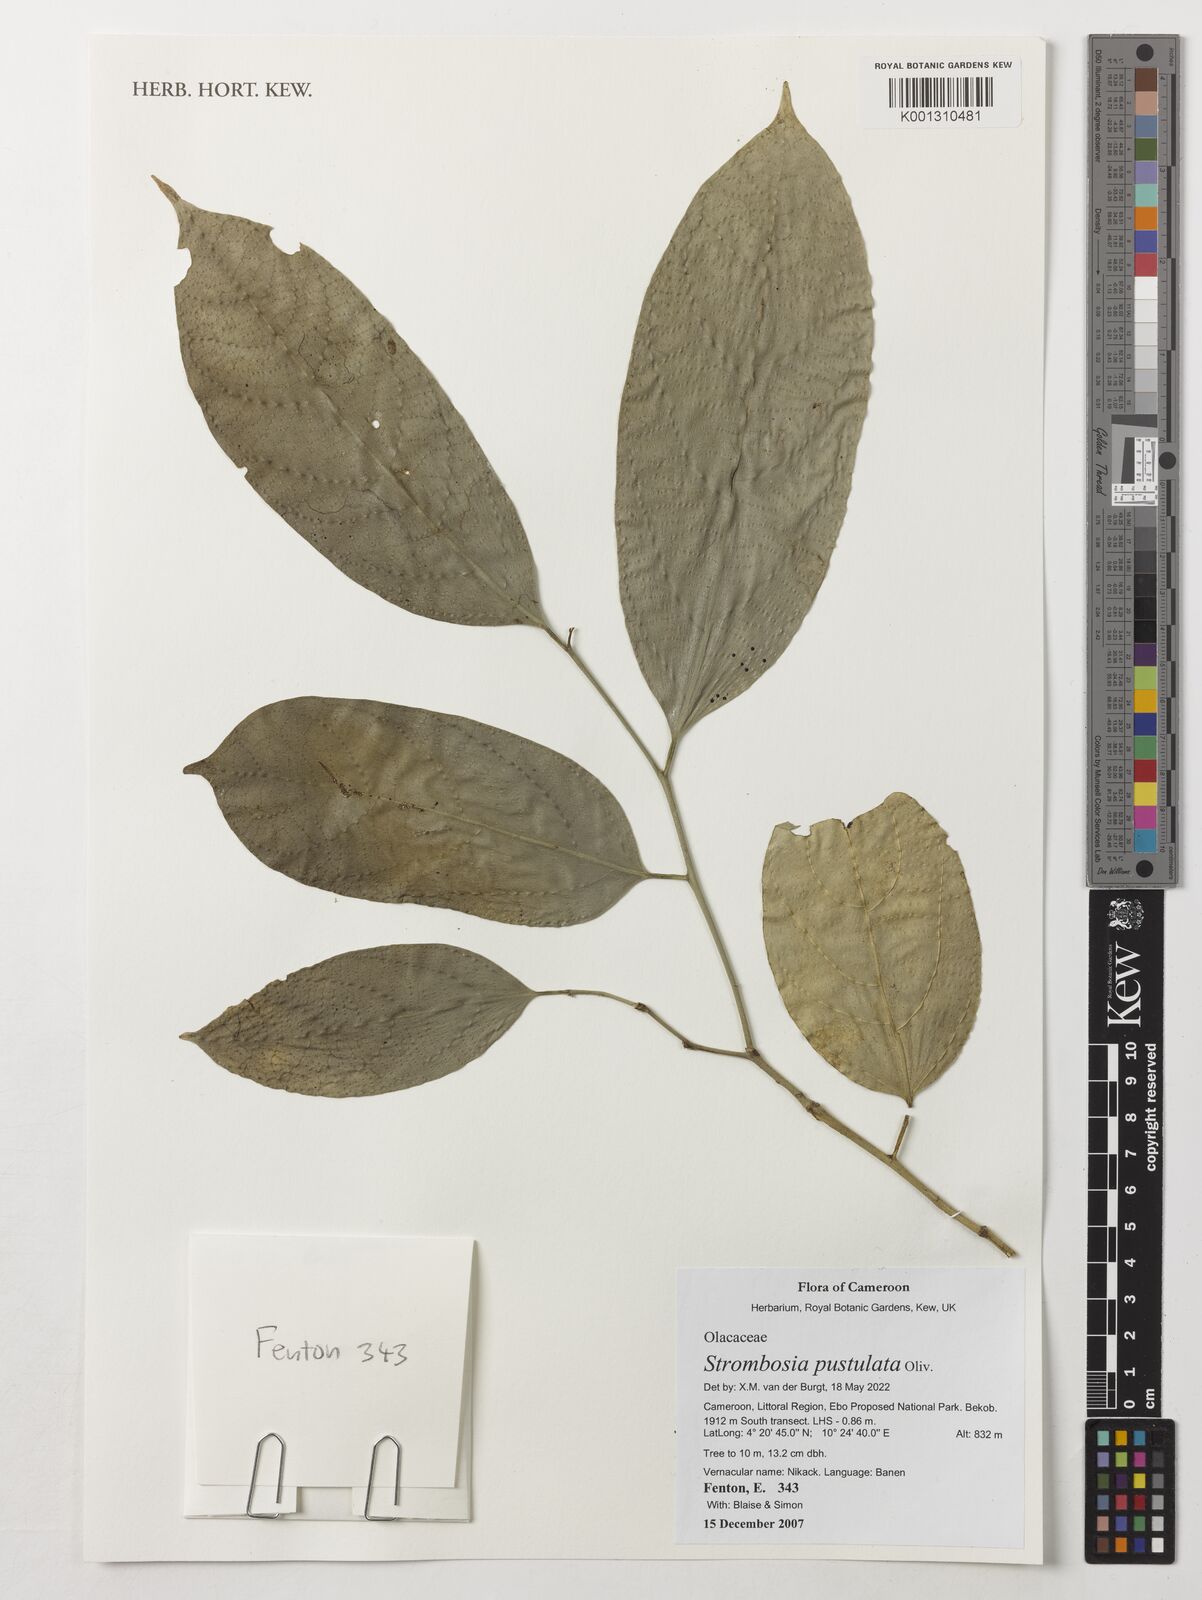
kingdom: Plantae
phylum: Tracheophyta
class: Magnoliopsida
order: Santalales
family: Strombosiaceae
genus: Strombosia
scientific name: Strombosia pustulata
